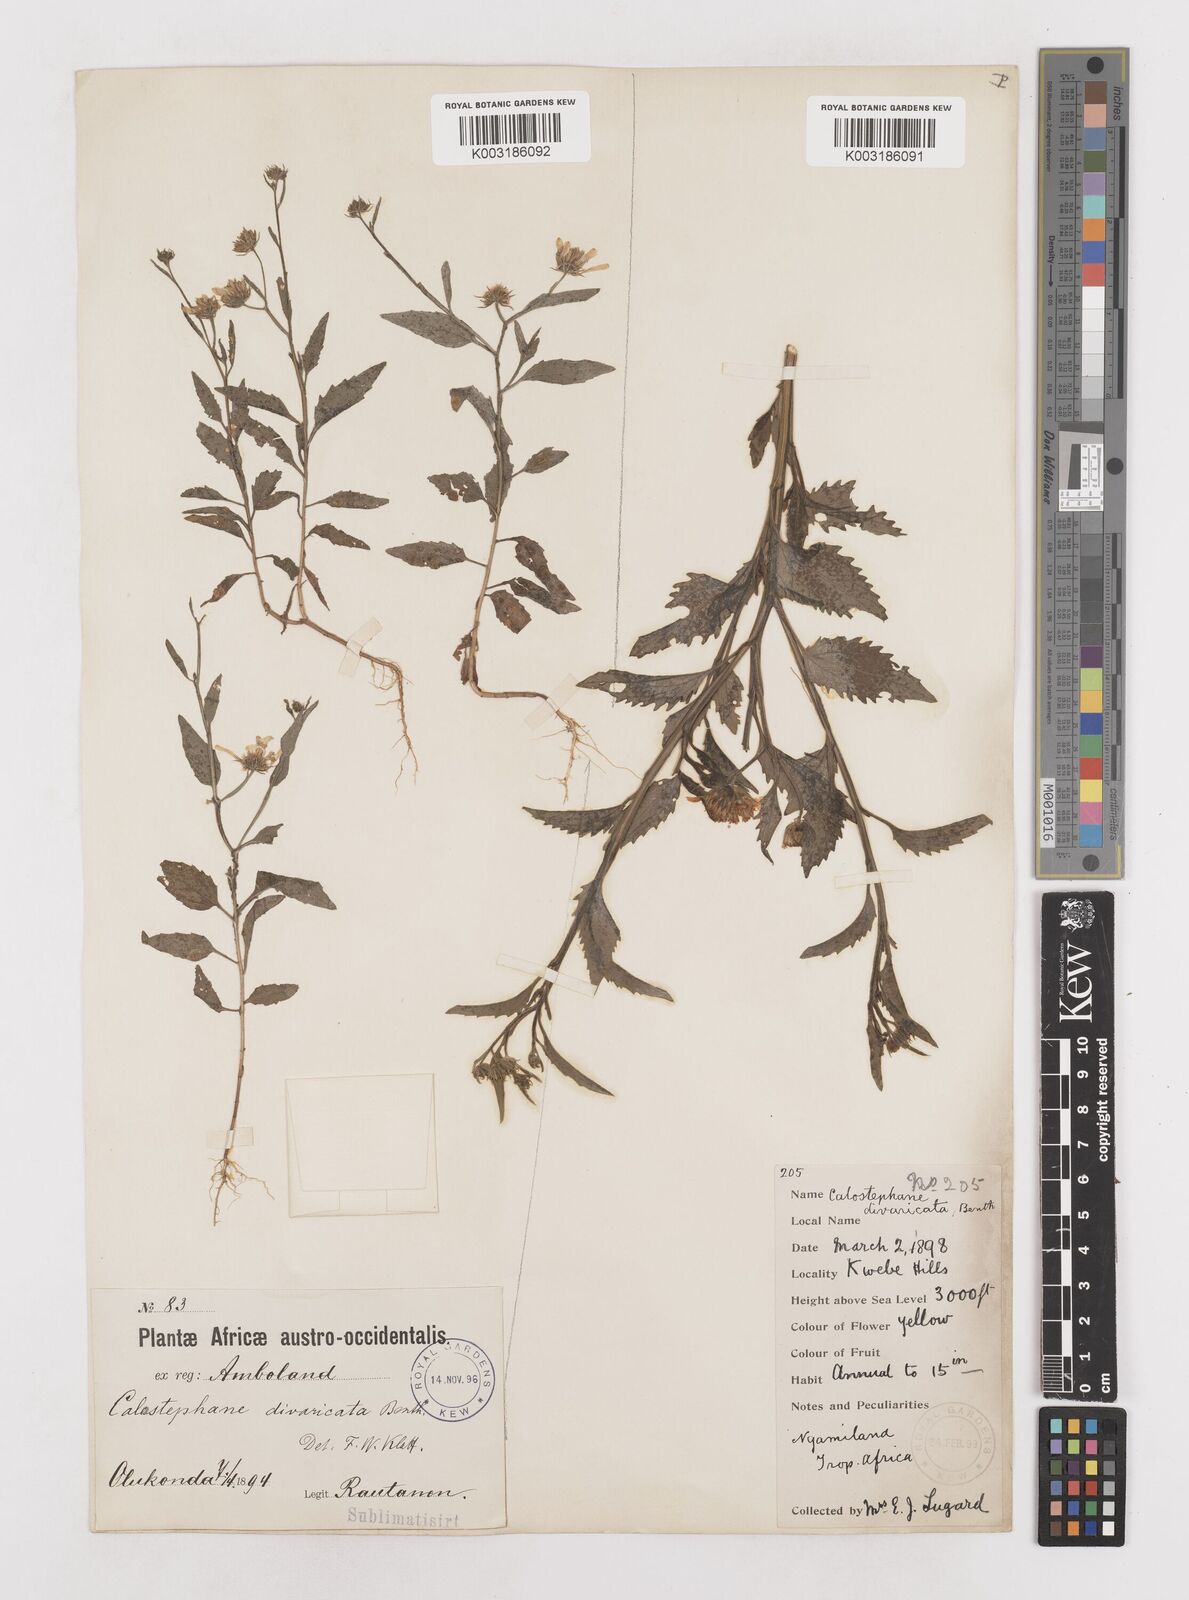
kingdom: Plantae
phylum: Tracheophyta
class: Magnoliopsida
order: Asterales
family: Asteraceae
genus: Calostephane
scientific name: Calostephane divaricata
